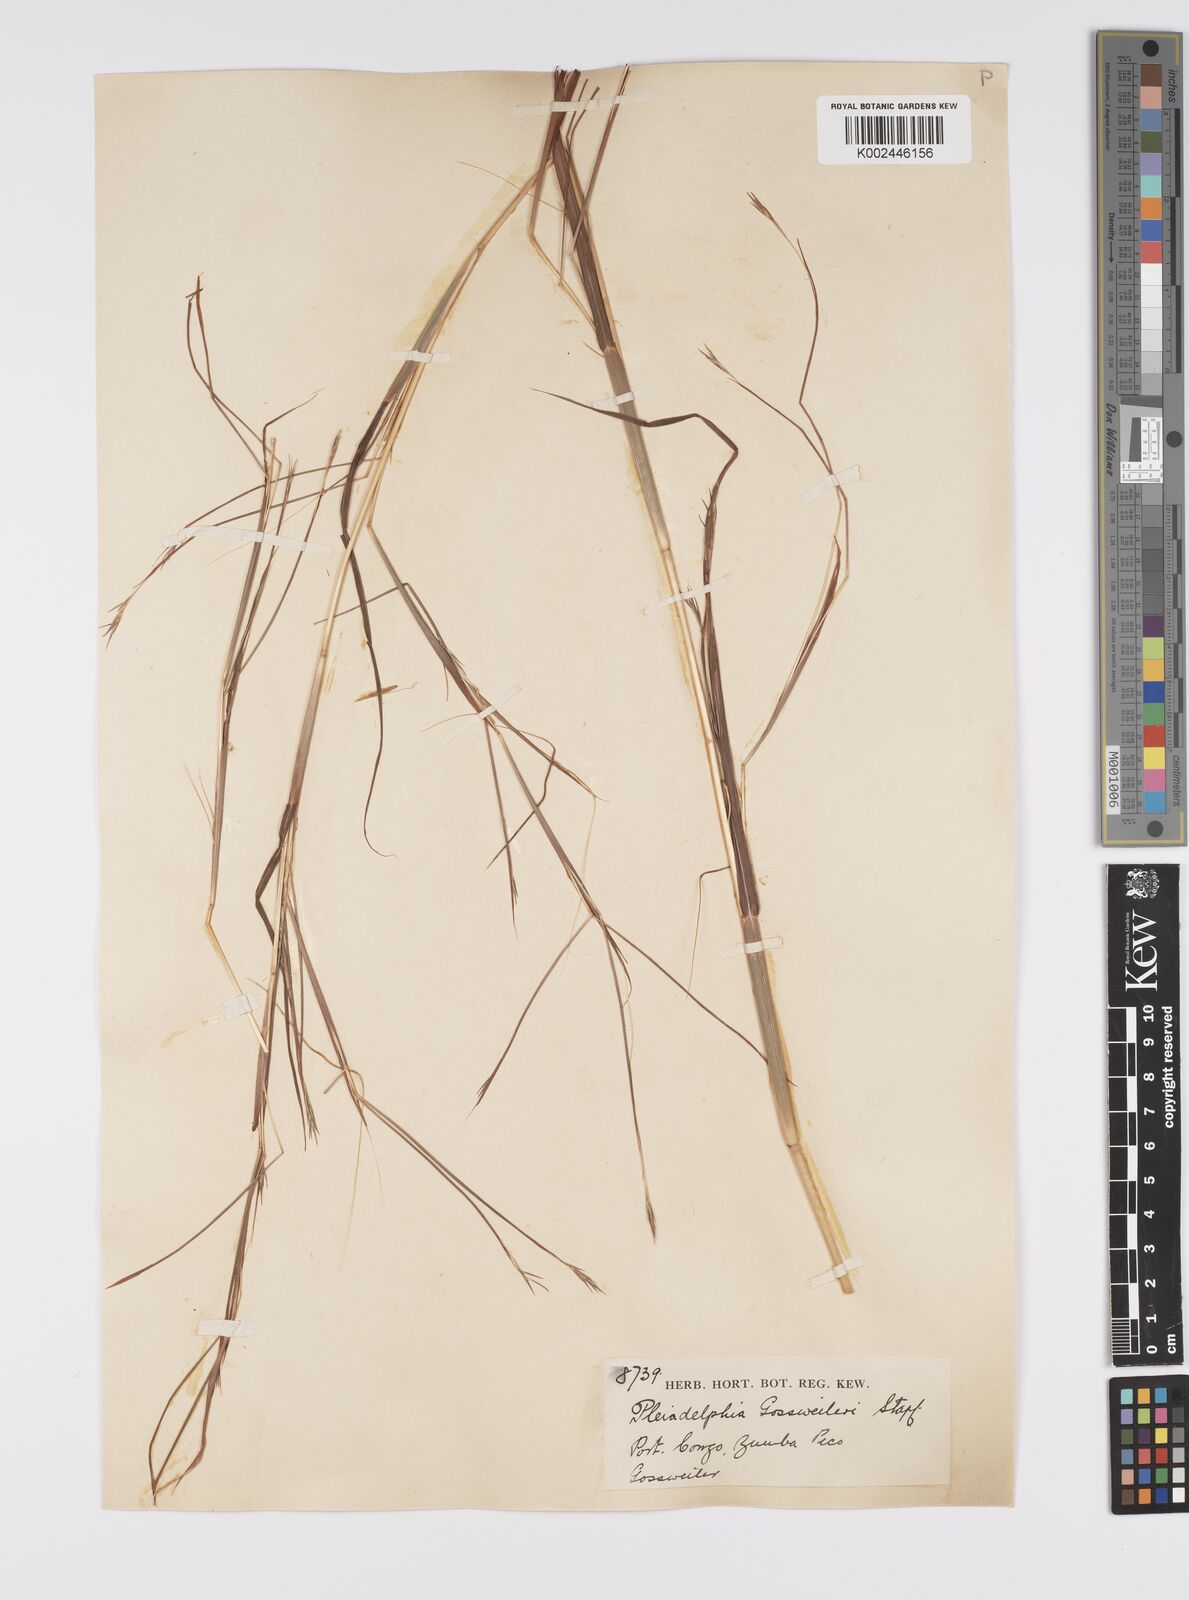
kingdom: Plantae
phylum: Tracheophyta
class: Liliopsida
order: Poales
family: Poaceae
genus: Elymandra
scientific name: Elymandra gossweileri
